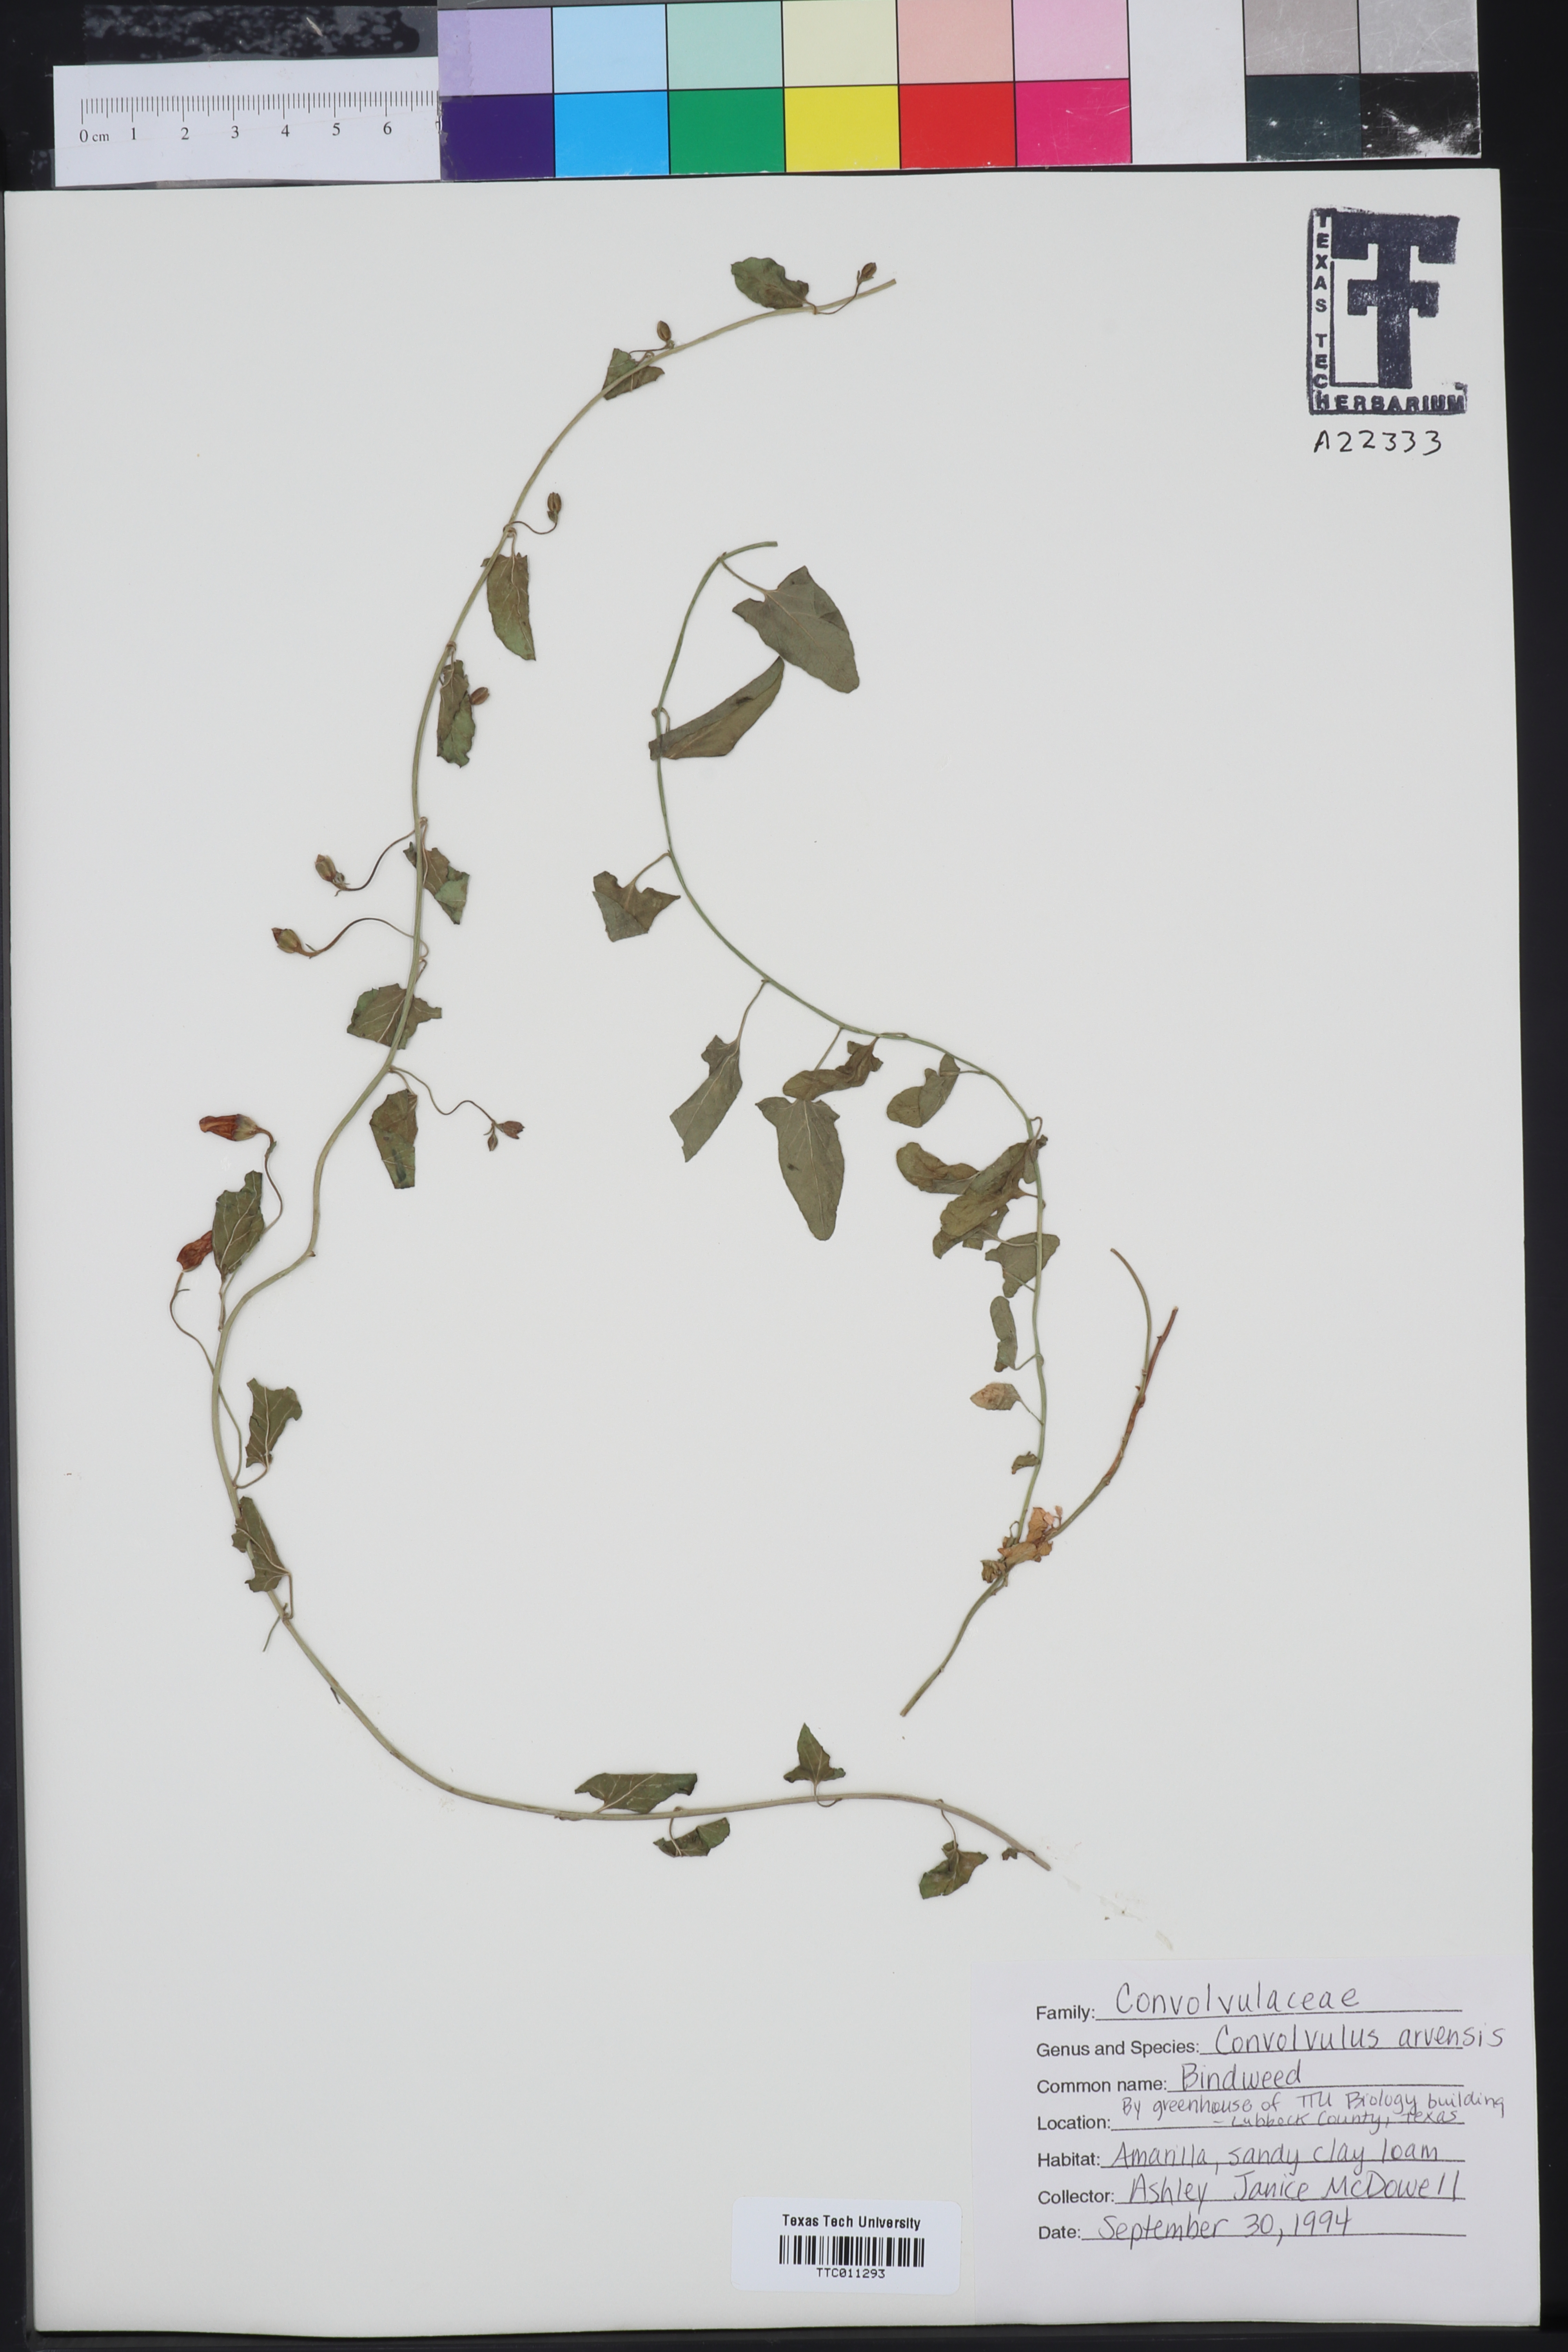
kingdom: Plantae
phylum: Tracheophyta
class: Magnoliopsida
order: Solanales
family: Convolvulaceae
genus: Convolvulus
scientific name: Convolvulus arvensis
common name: Field bindweed
